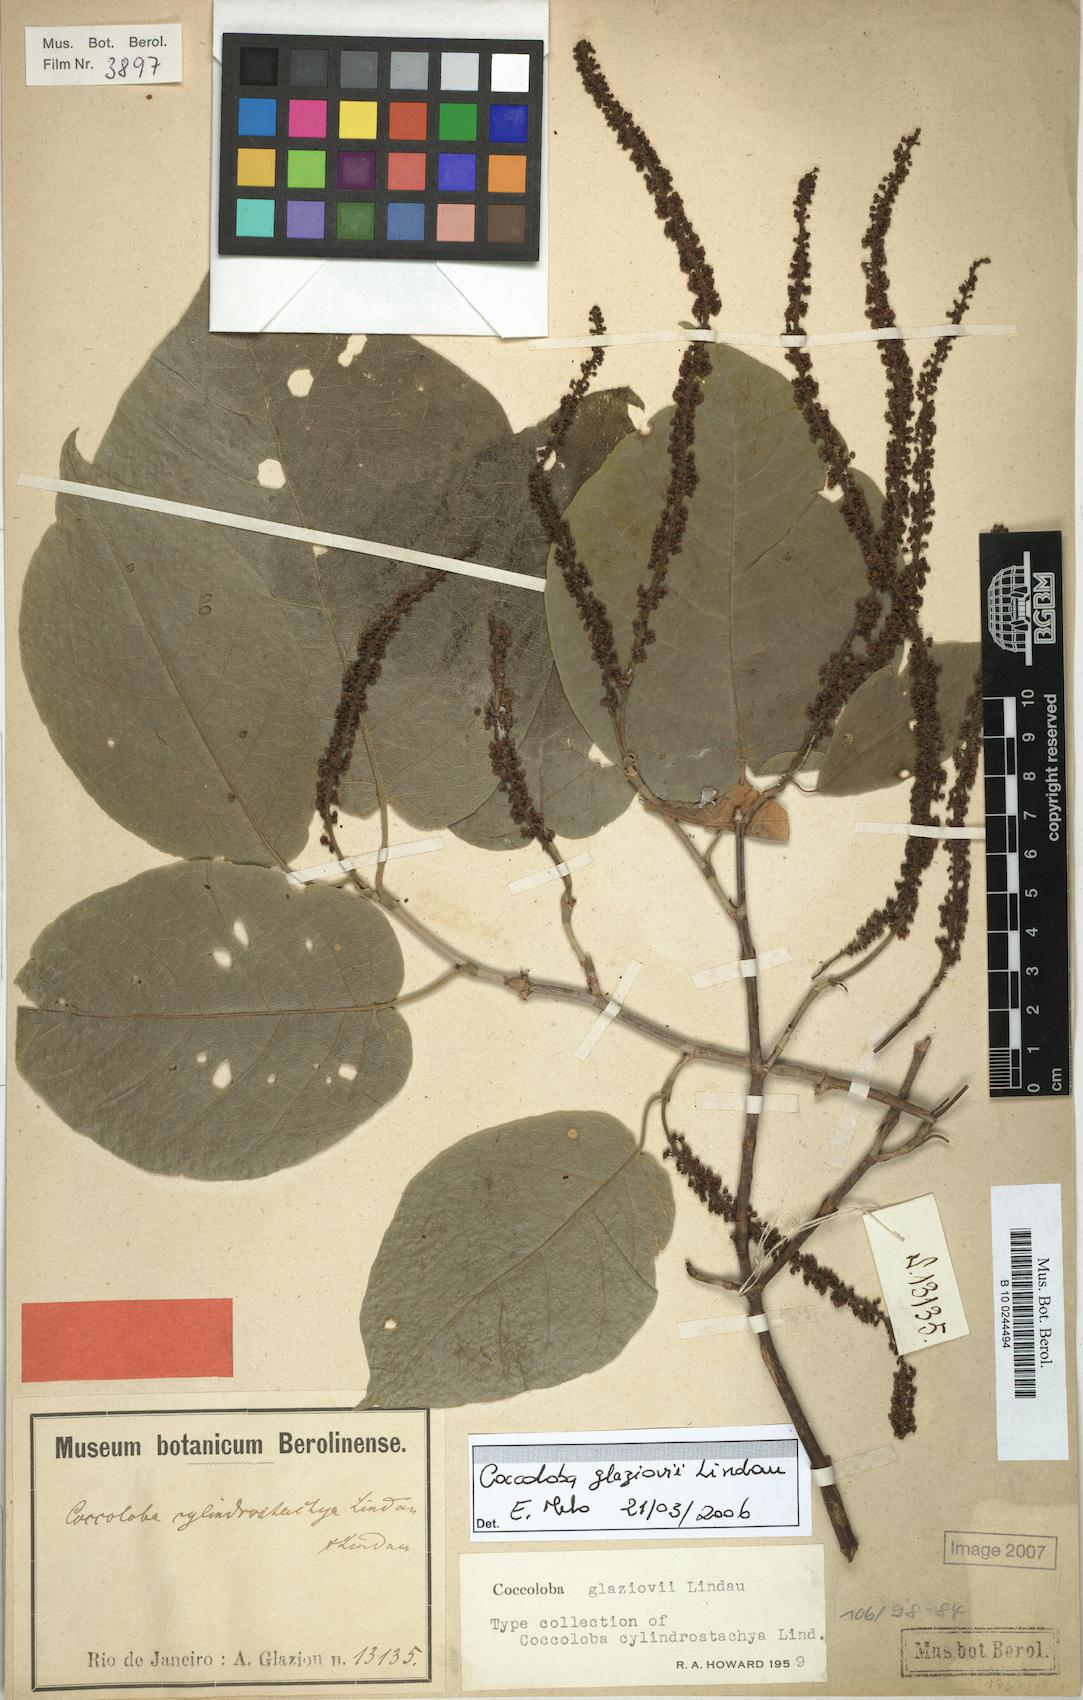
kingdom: Plantae
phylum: Tracheophyta
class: Magnoliopsida
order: Caryophyllales
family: Polygonaceae
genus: Coccoloba
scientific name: Coccoloba glaziovii
